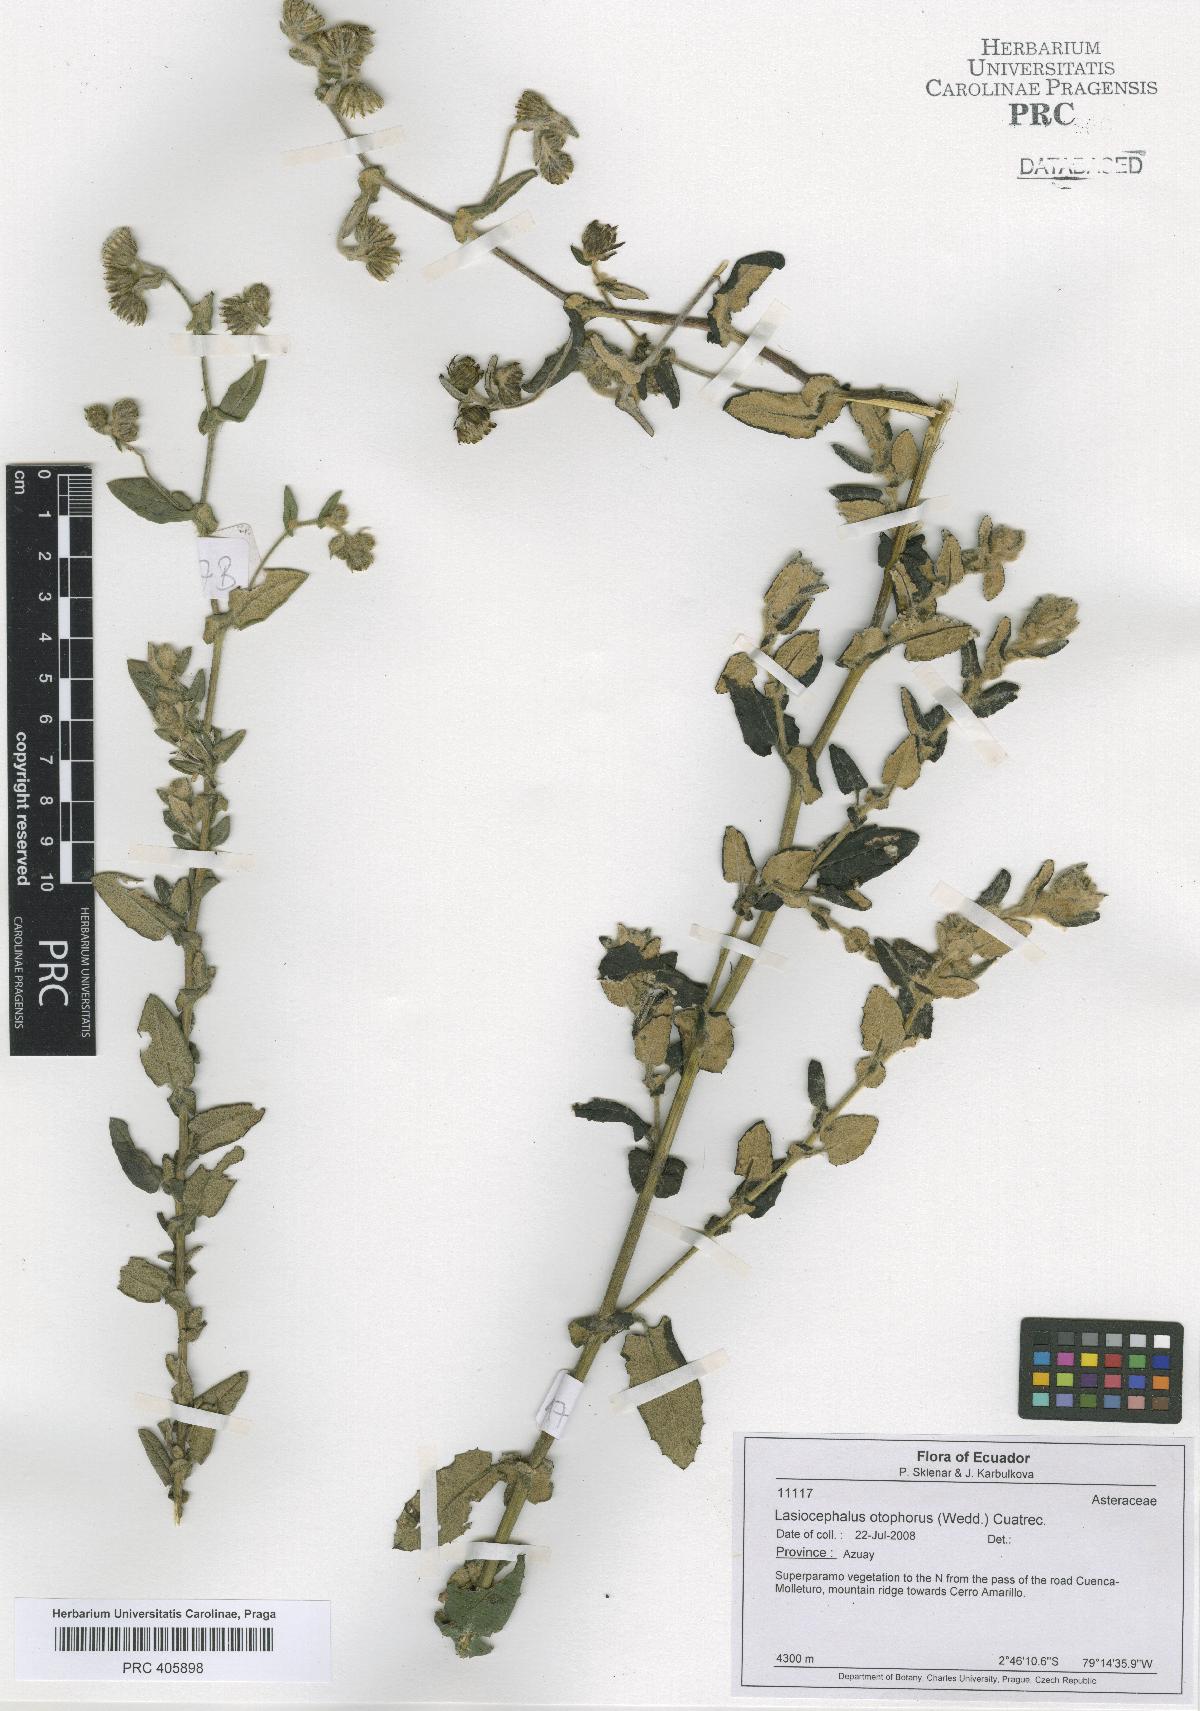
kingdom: Plantae
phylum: Tracheophyta
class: Magnoliopsida
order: Asterales
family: Asteraceae
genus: Aetheolaena
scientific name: Aetheolaena otophora
